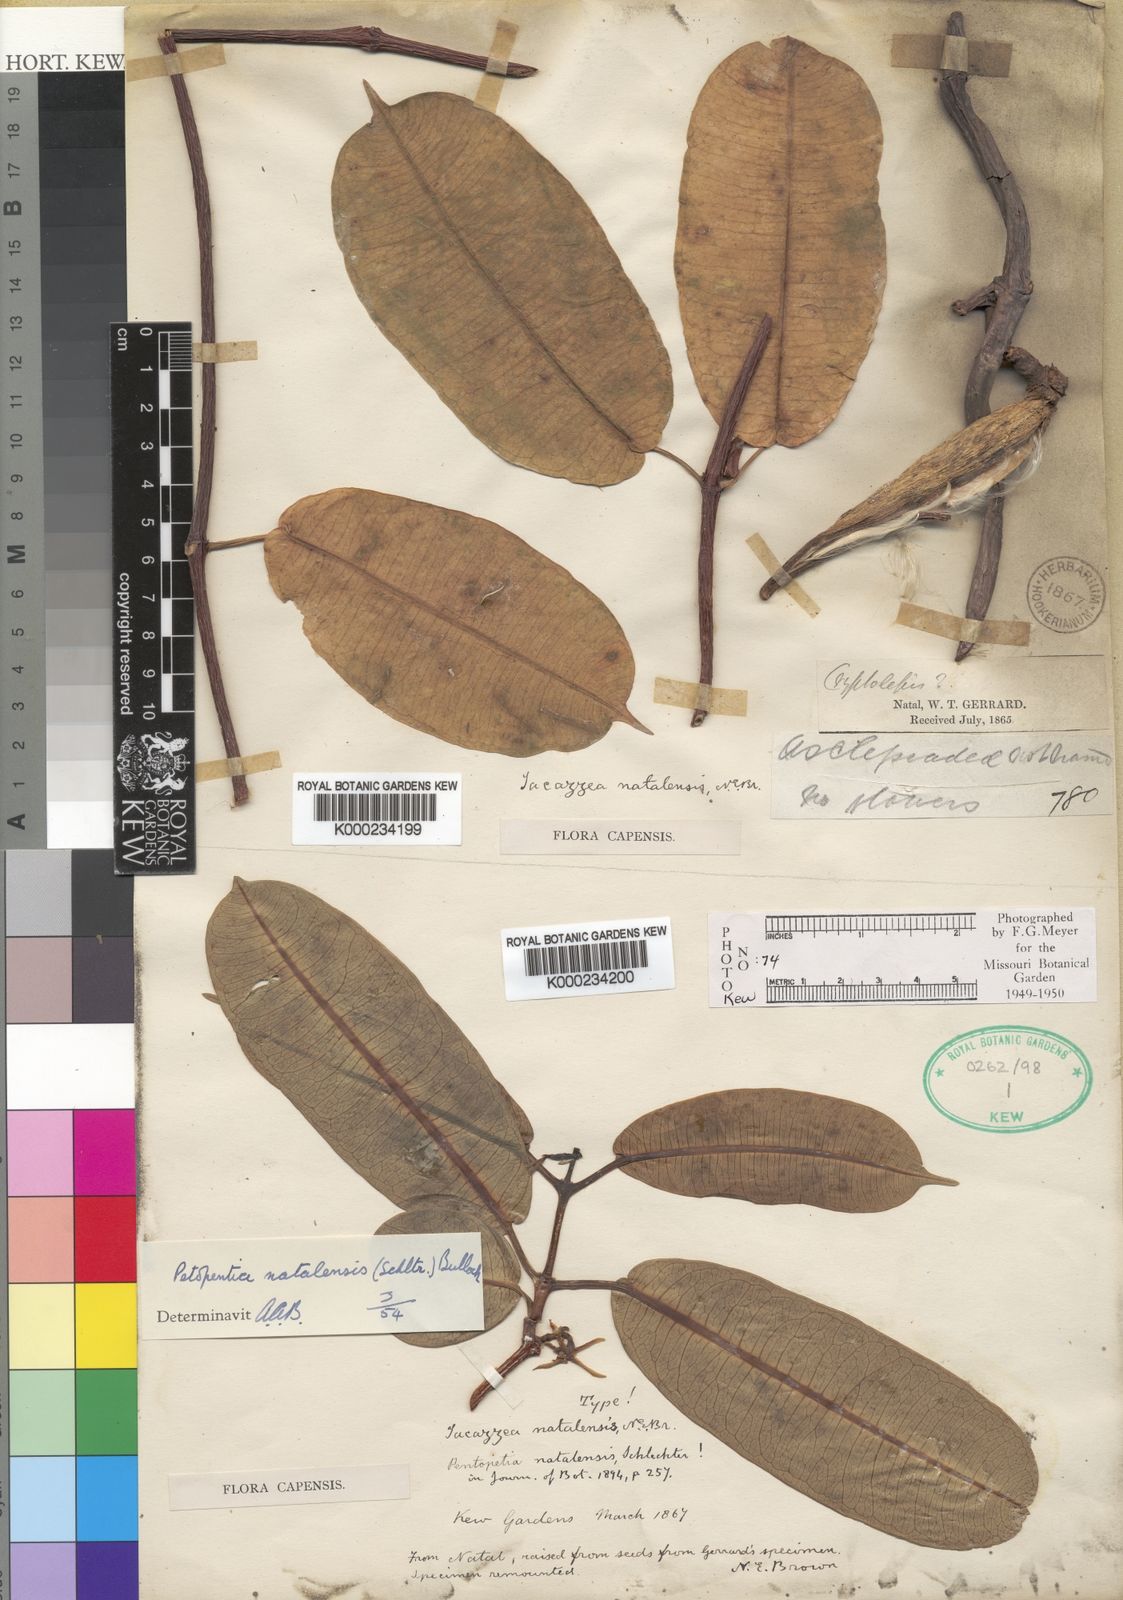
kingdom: Plantae
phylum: Tracheophyta
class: Magnoliopsida
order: Gentianales
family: Apocynaceae
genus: Petopentia
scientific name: Petopentia natalensis
